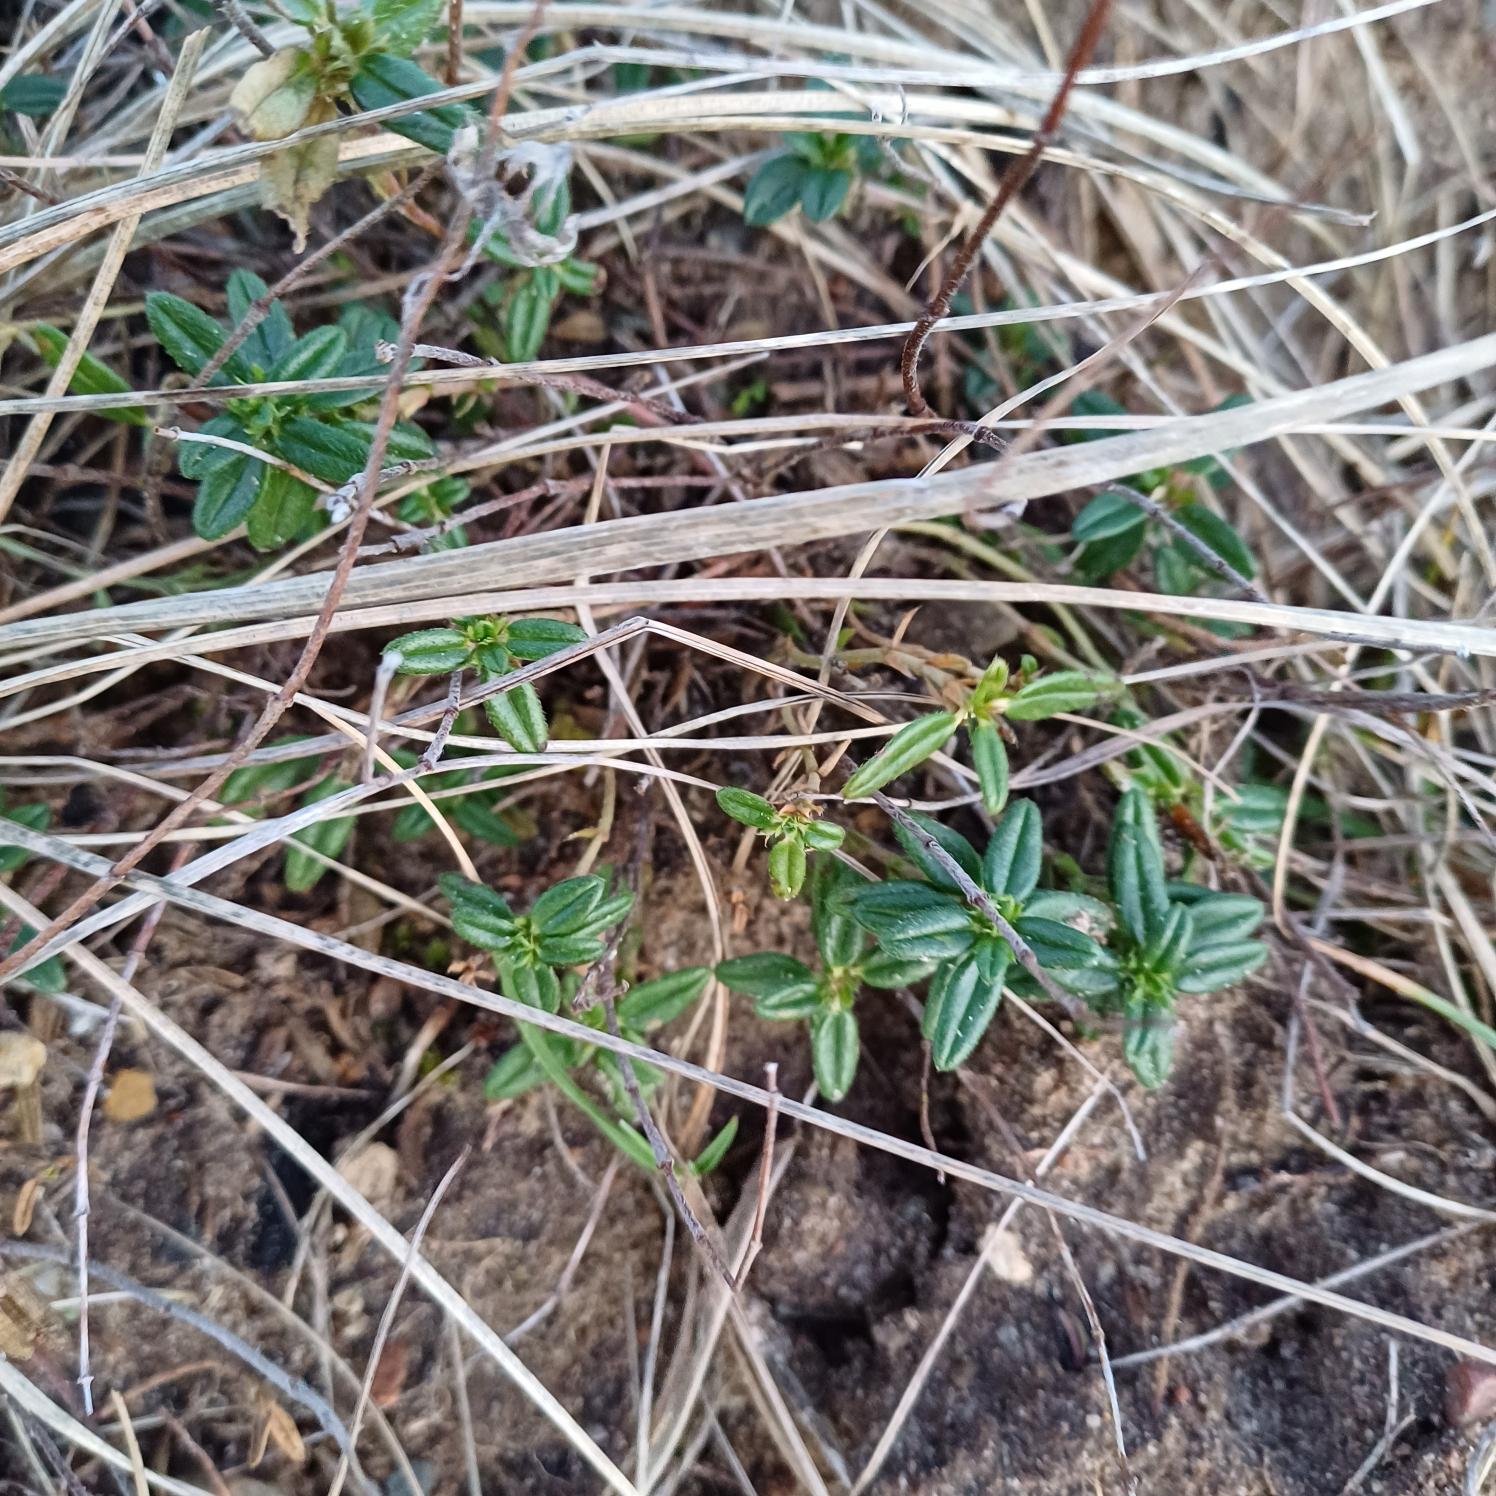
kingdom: Plantae
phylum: Tracheophyta
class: Magnoliopsida
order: Malvales
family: Cistaceae
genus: Helianthemum
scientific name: Helianthemum nummularium
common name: Bakke-soløje
